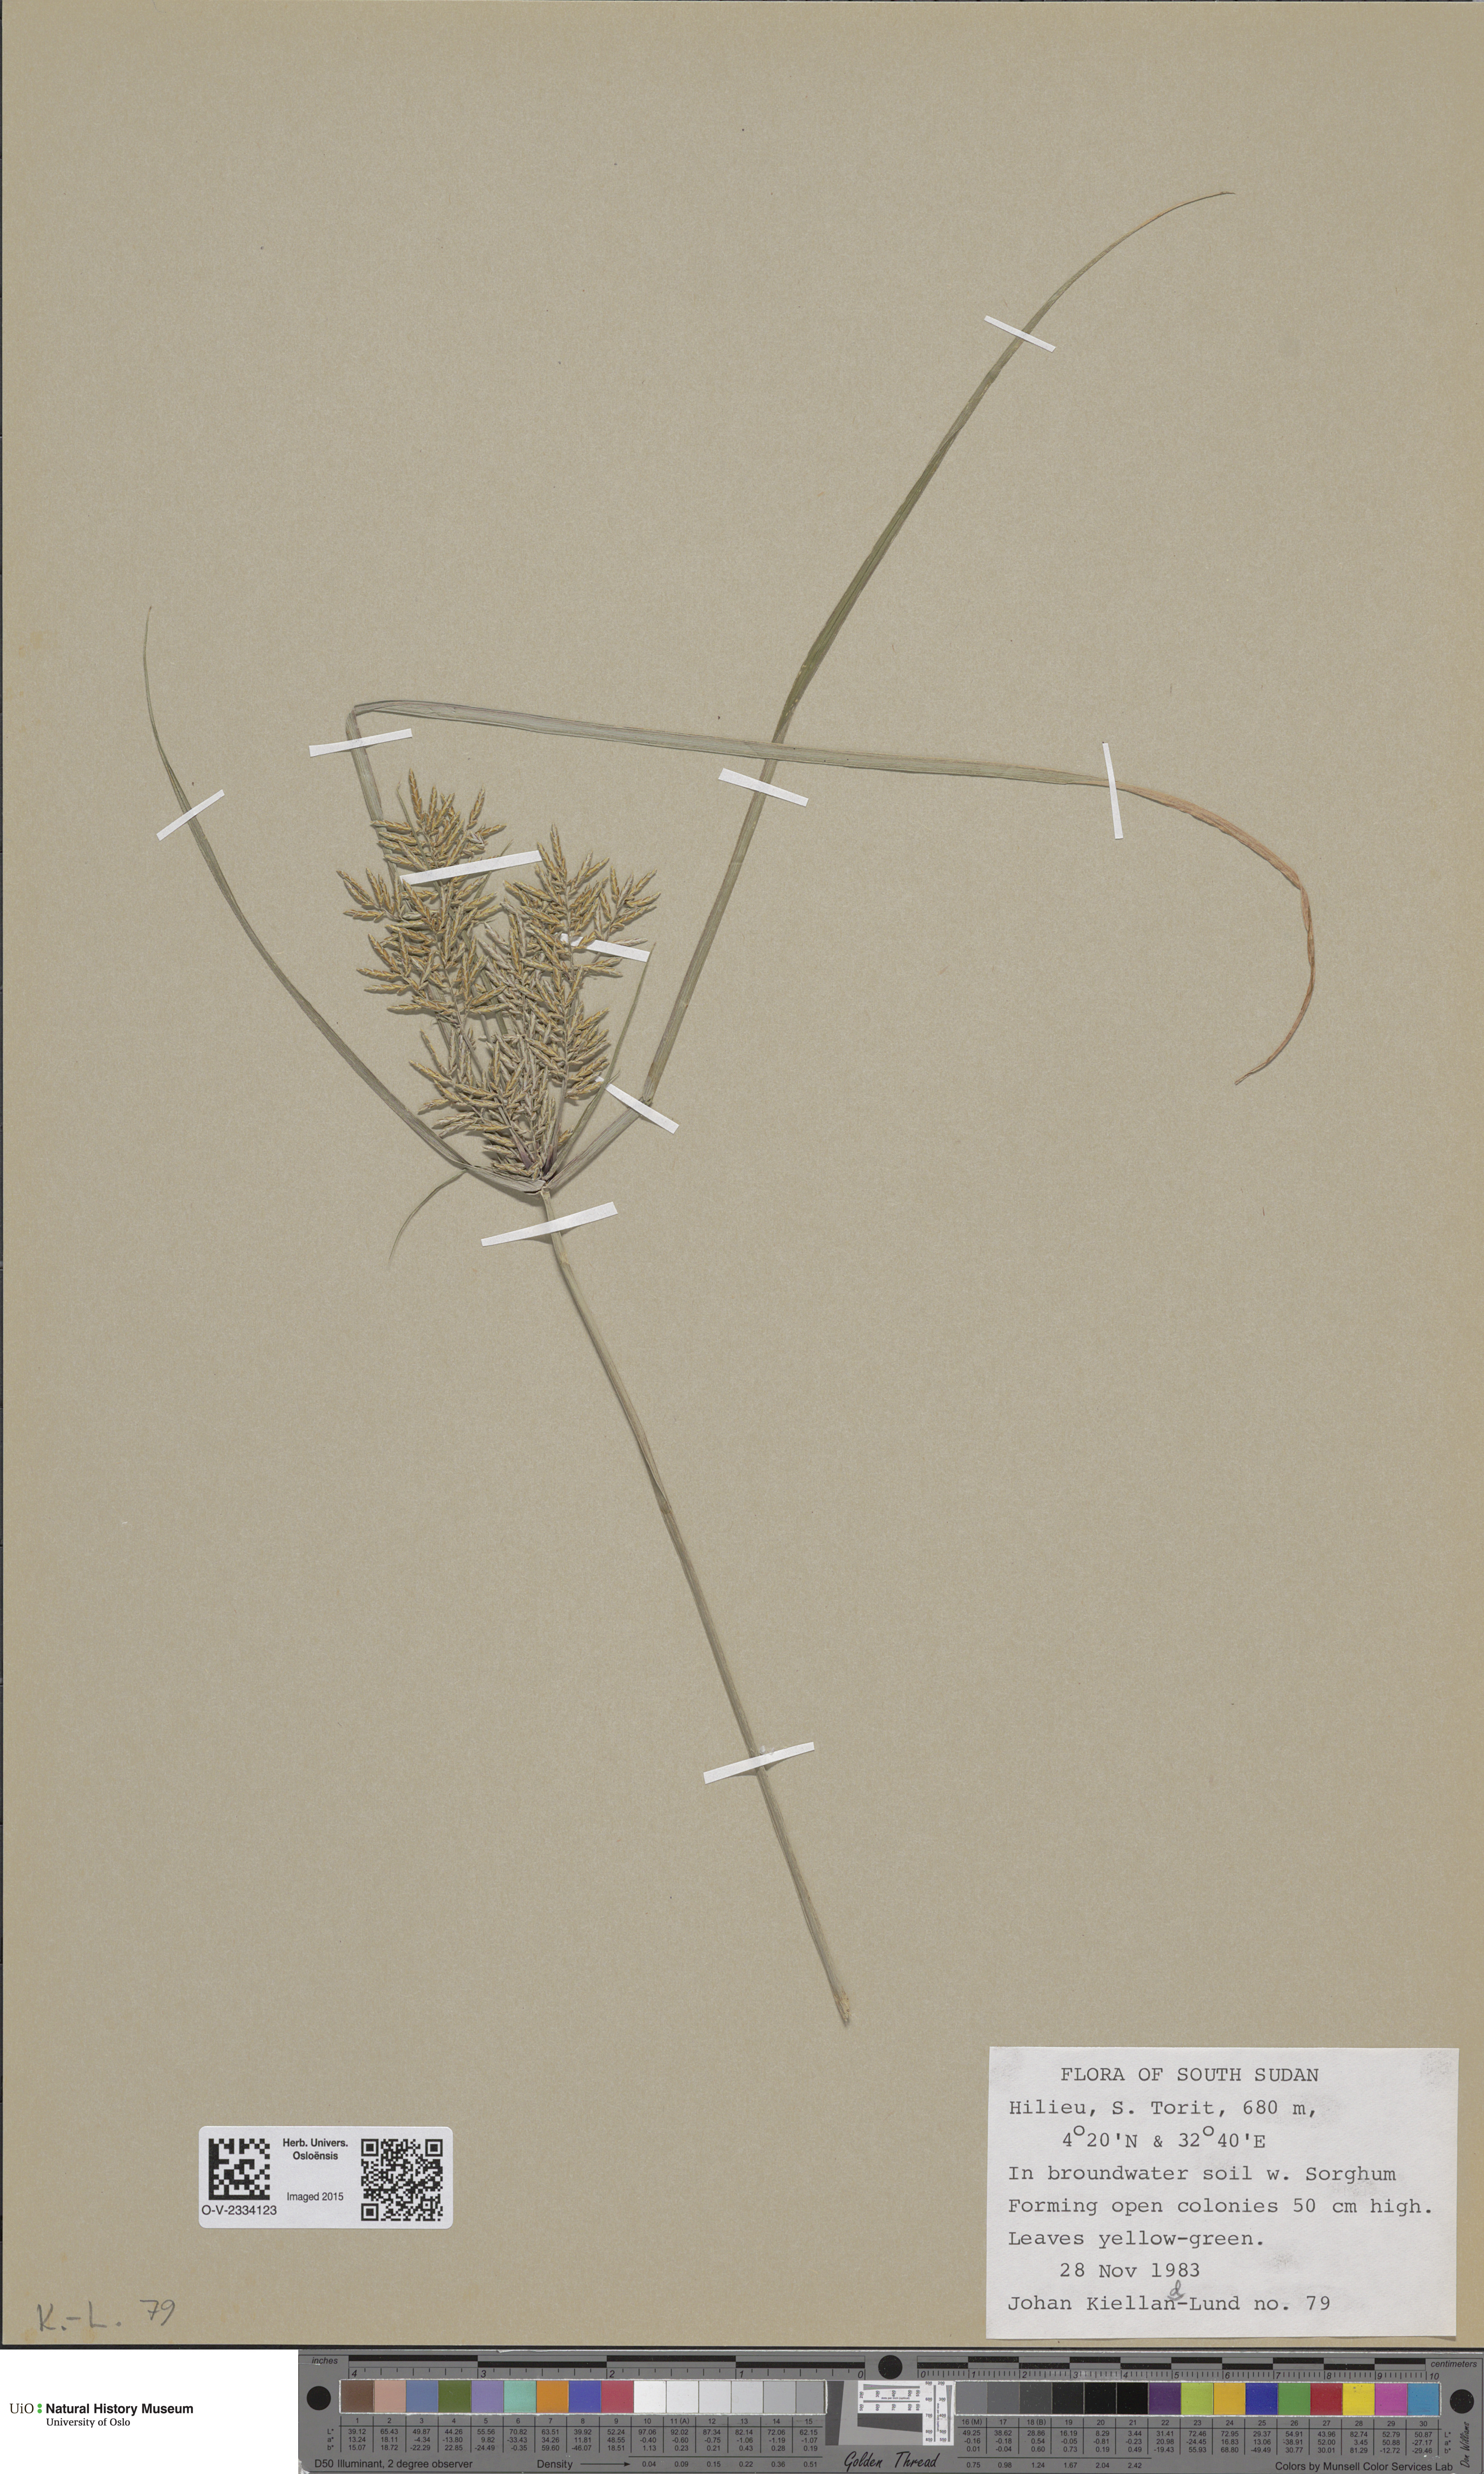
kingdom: Plantae
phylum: Tracheophyta
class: Magnoliopsida
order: Ranunculales
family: Papaveraceae
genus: Papaver
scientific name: Papaver radicatum
